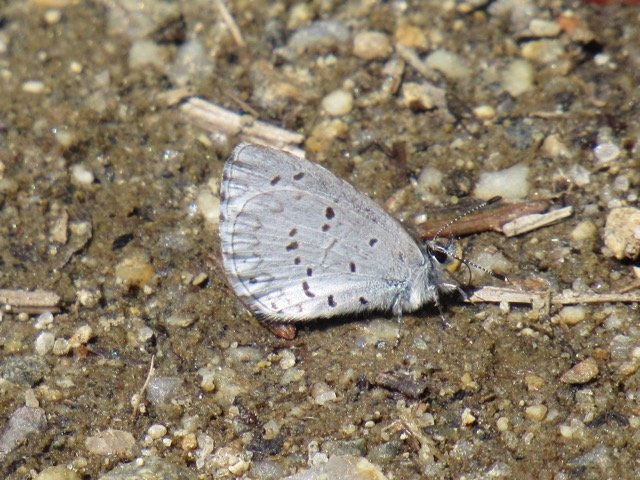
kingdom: Animalia
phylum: Arthropoda
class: Insecta
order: Lepidoptera
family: Lycaenidae
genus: Celastrina
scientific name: Celastrina lucia
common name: Northern Spring Azure
